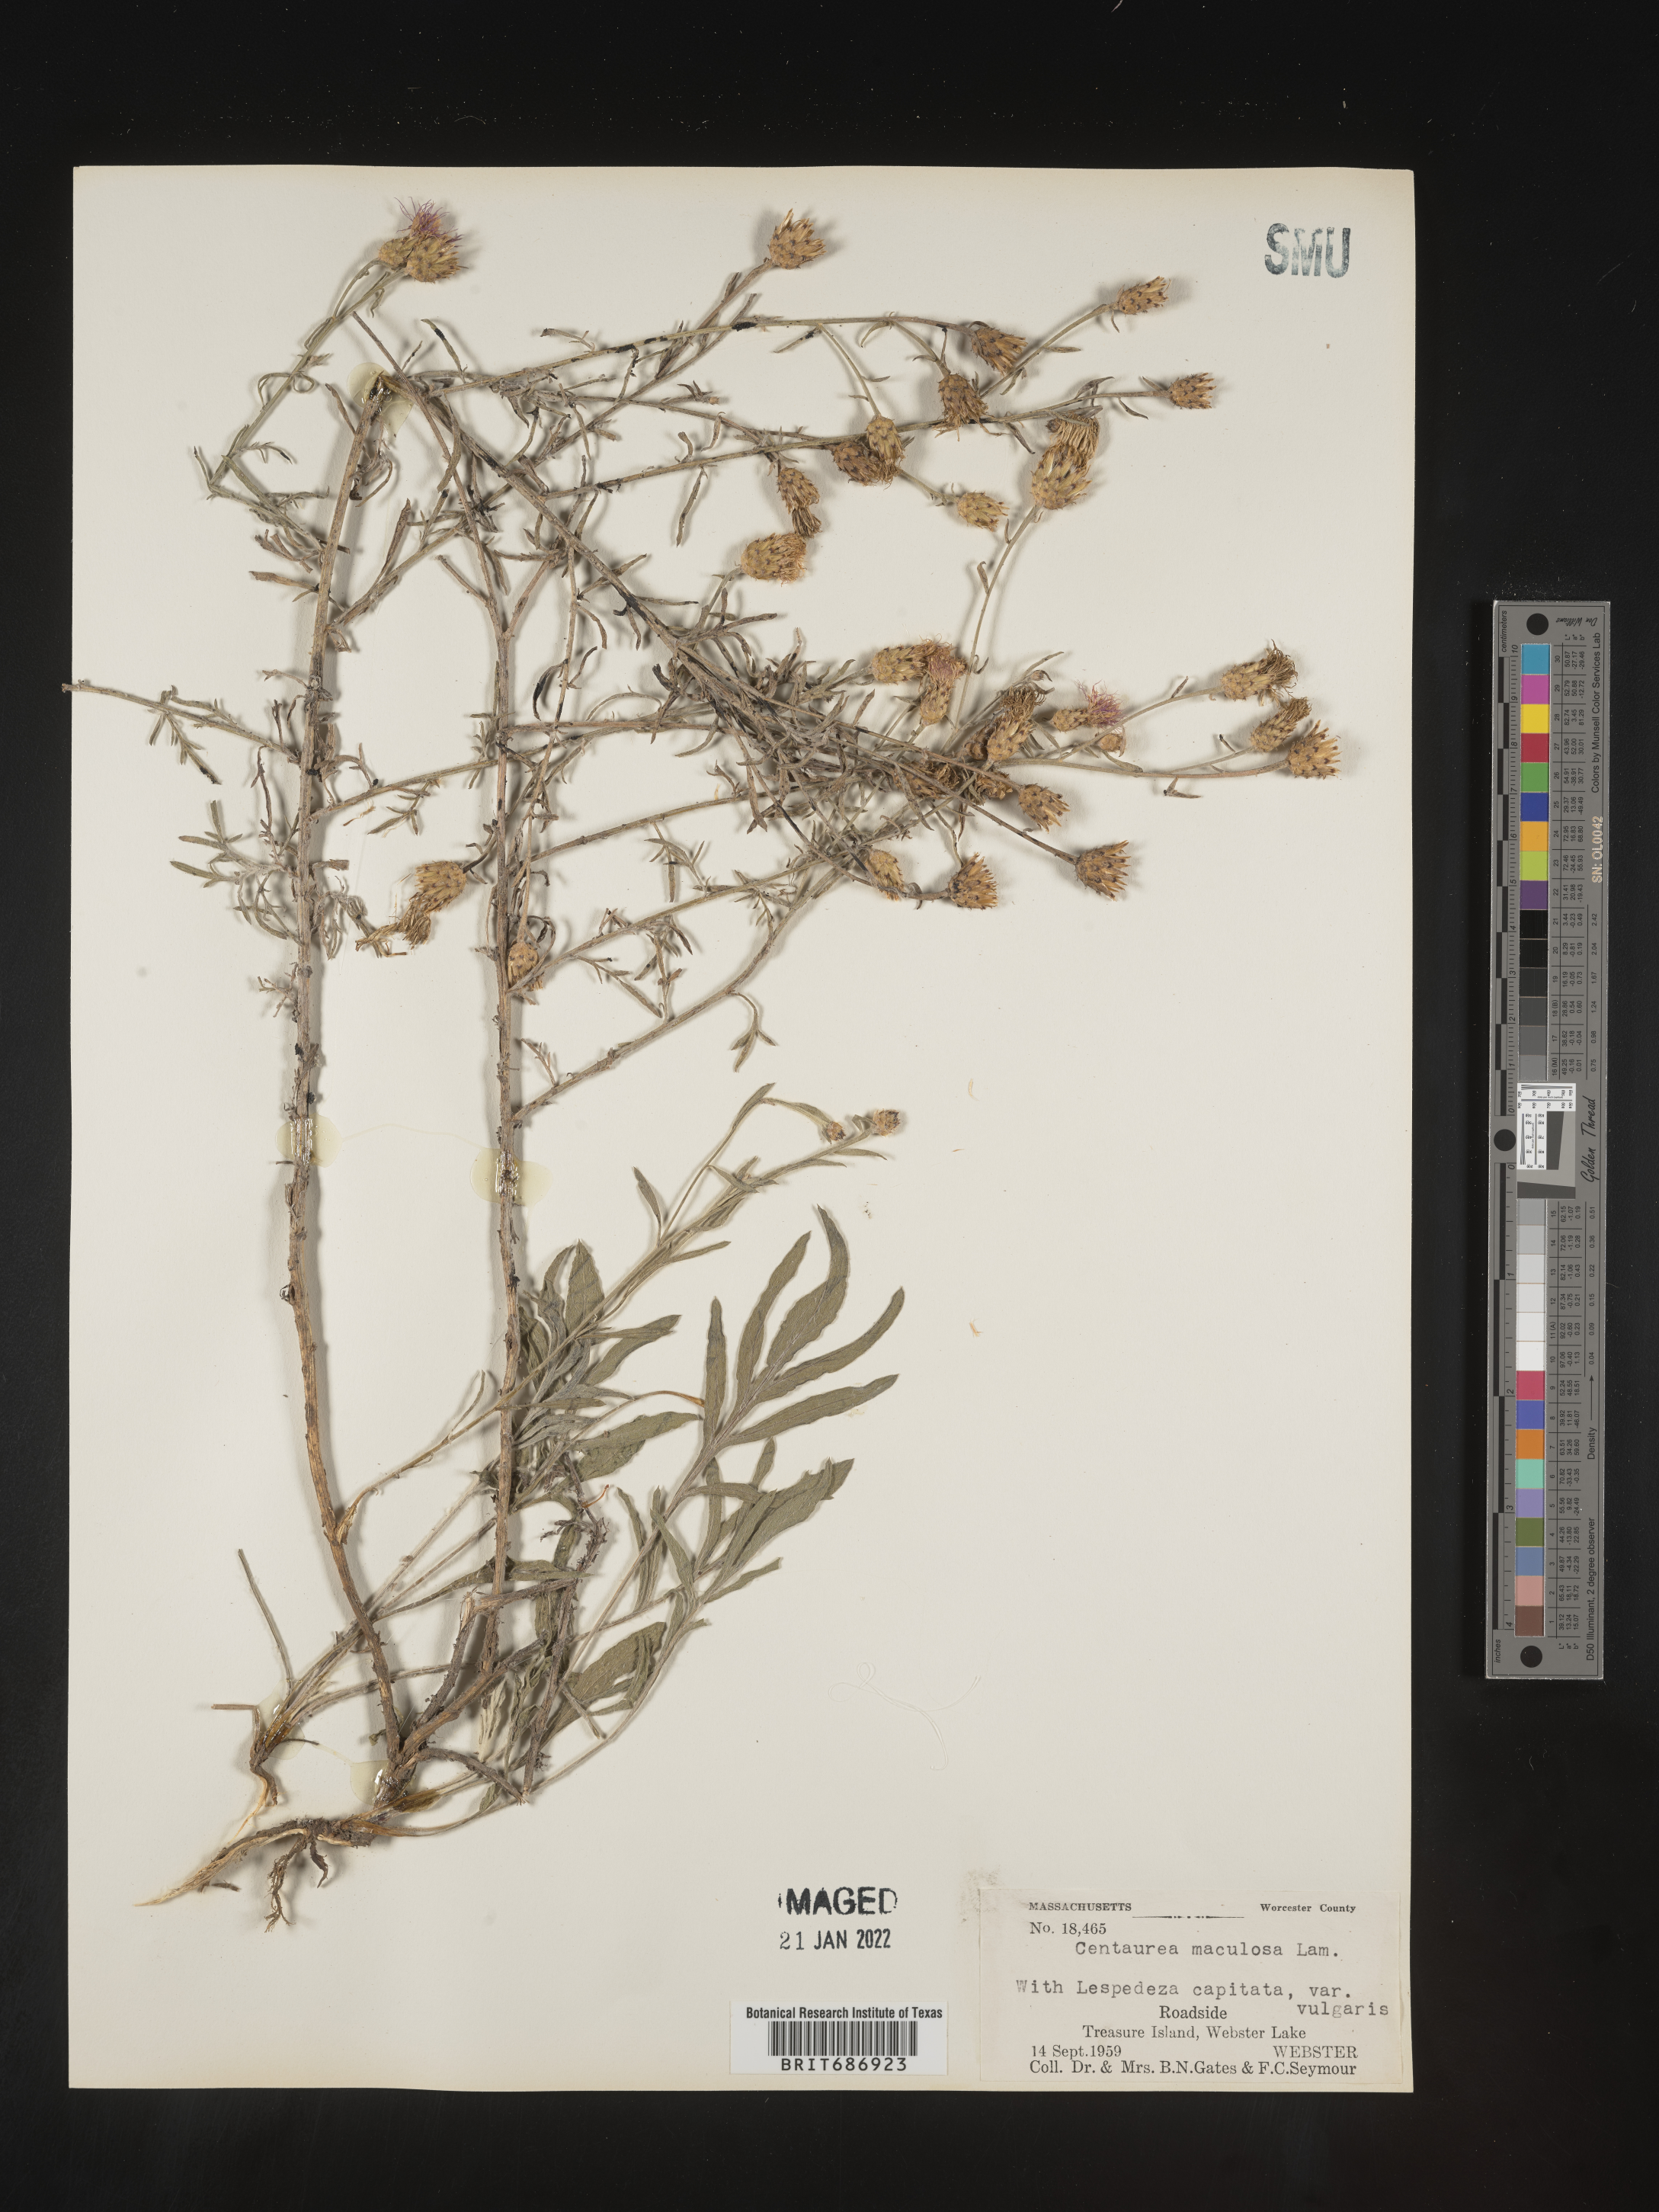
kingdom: Plantae
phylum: Tracheophyta
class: Magnoliopsida
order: Asterales
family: Asteraceae
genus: Centaurea
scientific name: Centaurea stoebe
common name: Spotted knapweed
